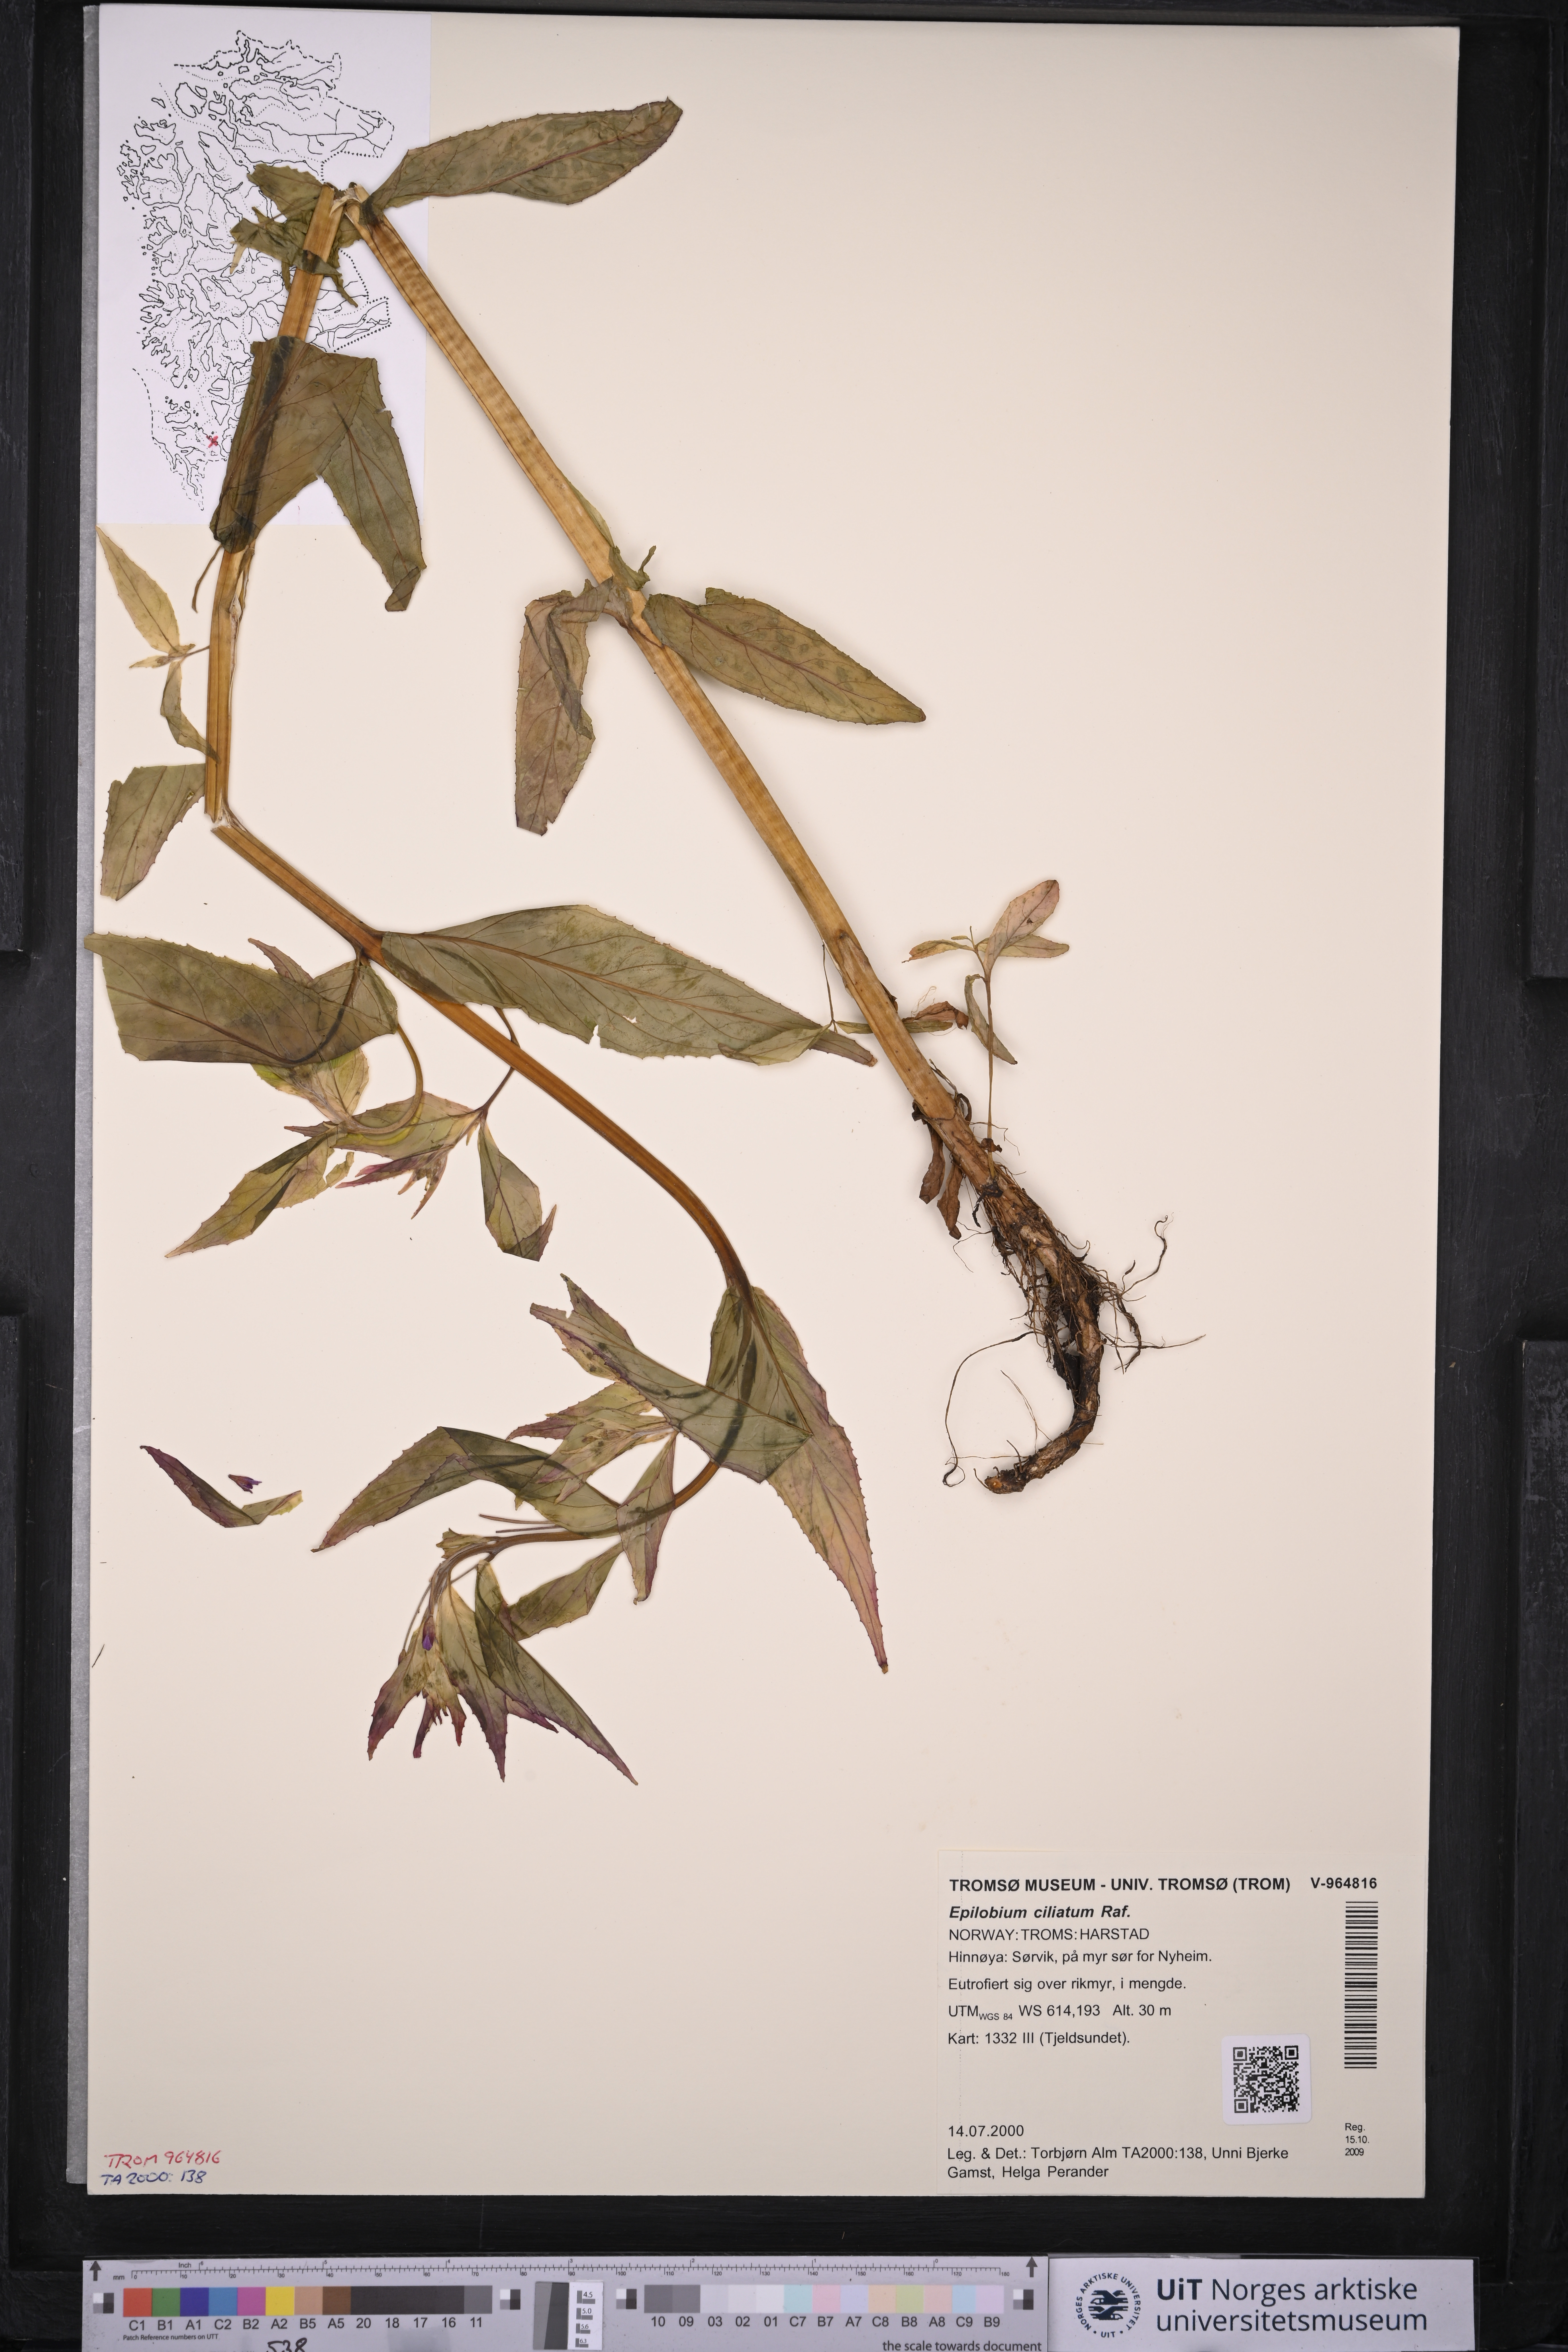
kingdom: Plantae
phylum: Tracheophyta
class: Magnoliopsida
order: Myrtales
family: Onagraceae
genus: Epilobium
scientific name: Epilobium ciliatum
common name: American willowherb
